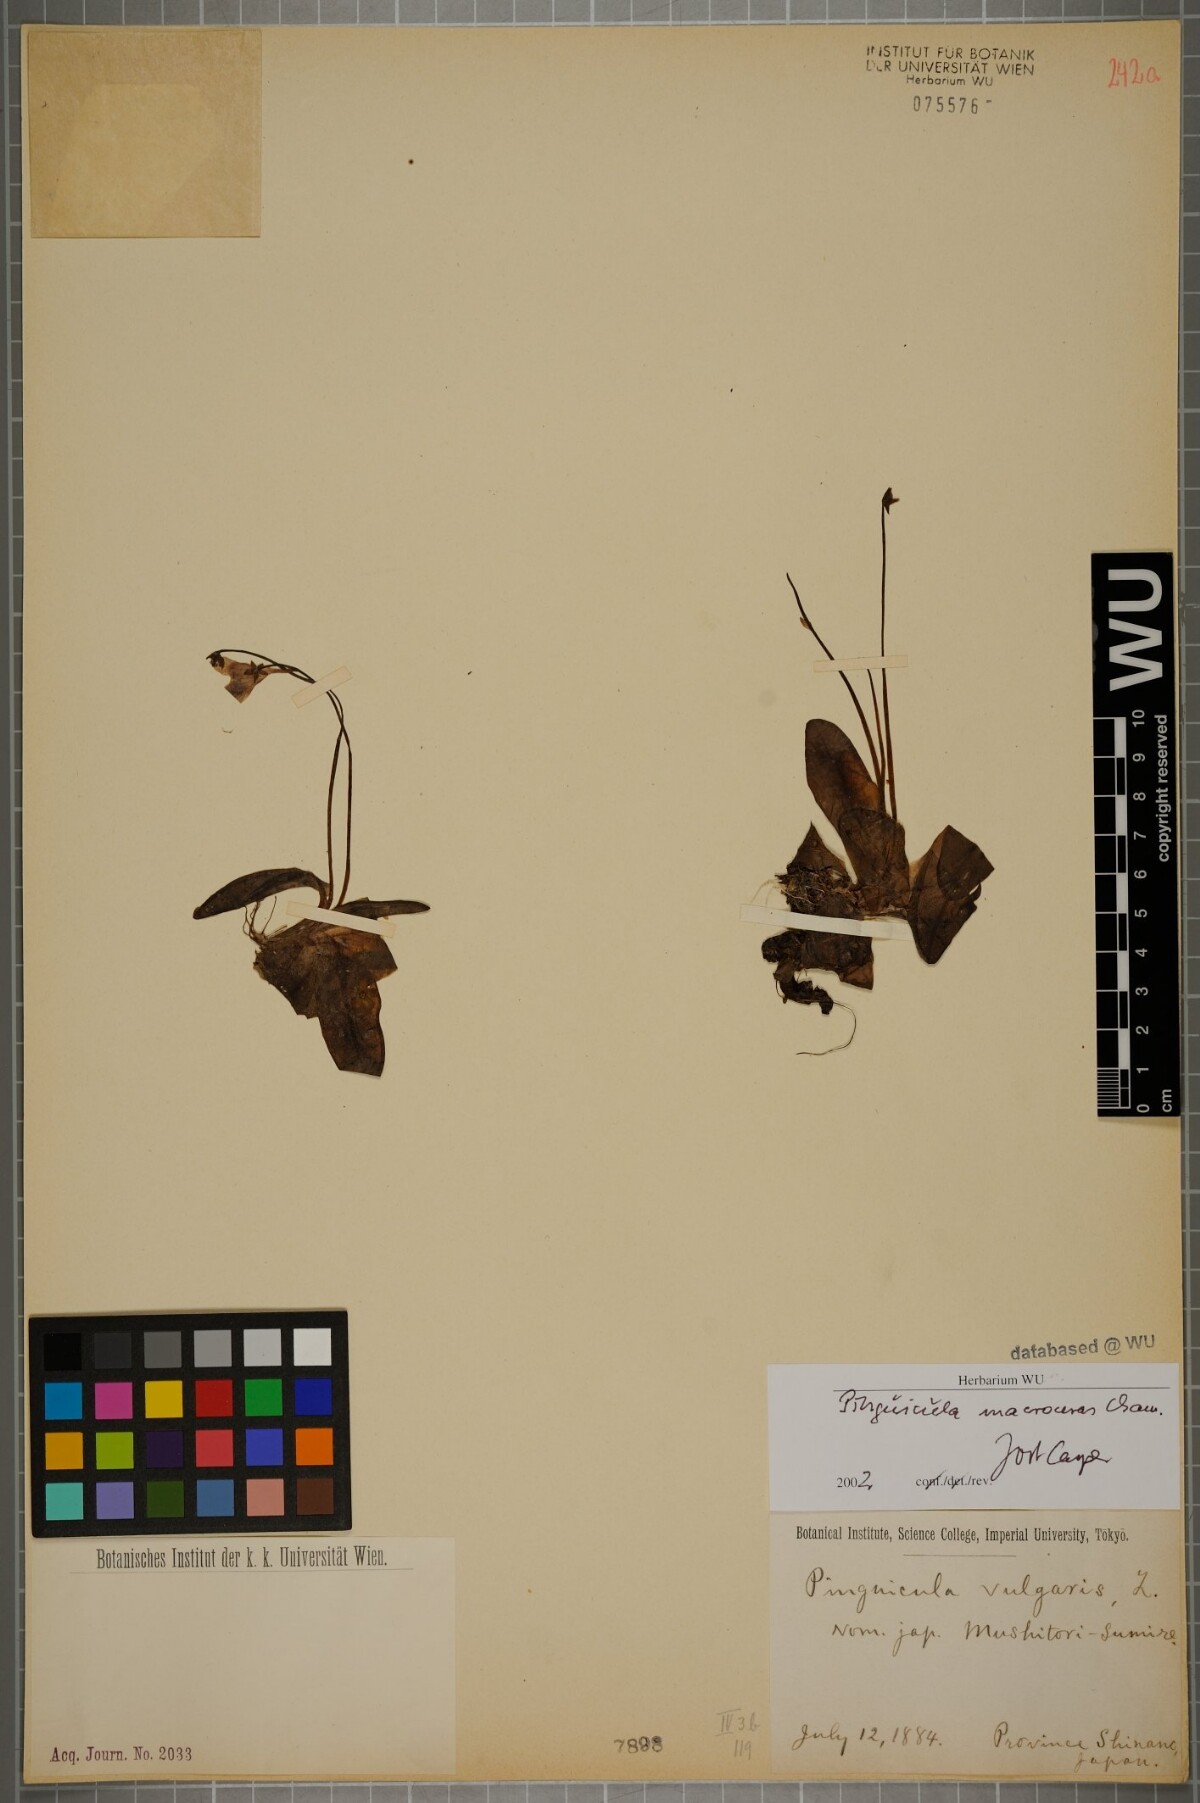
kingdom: Plantae
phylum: Tracheophyta
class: Magnoliopsida
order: Lamiales
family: Lentibulariaceae
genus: Pinguicula
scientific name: Pinguicula macroceras
